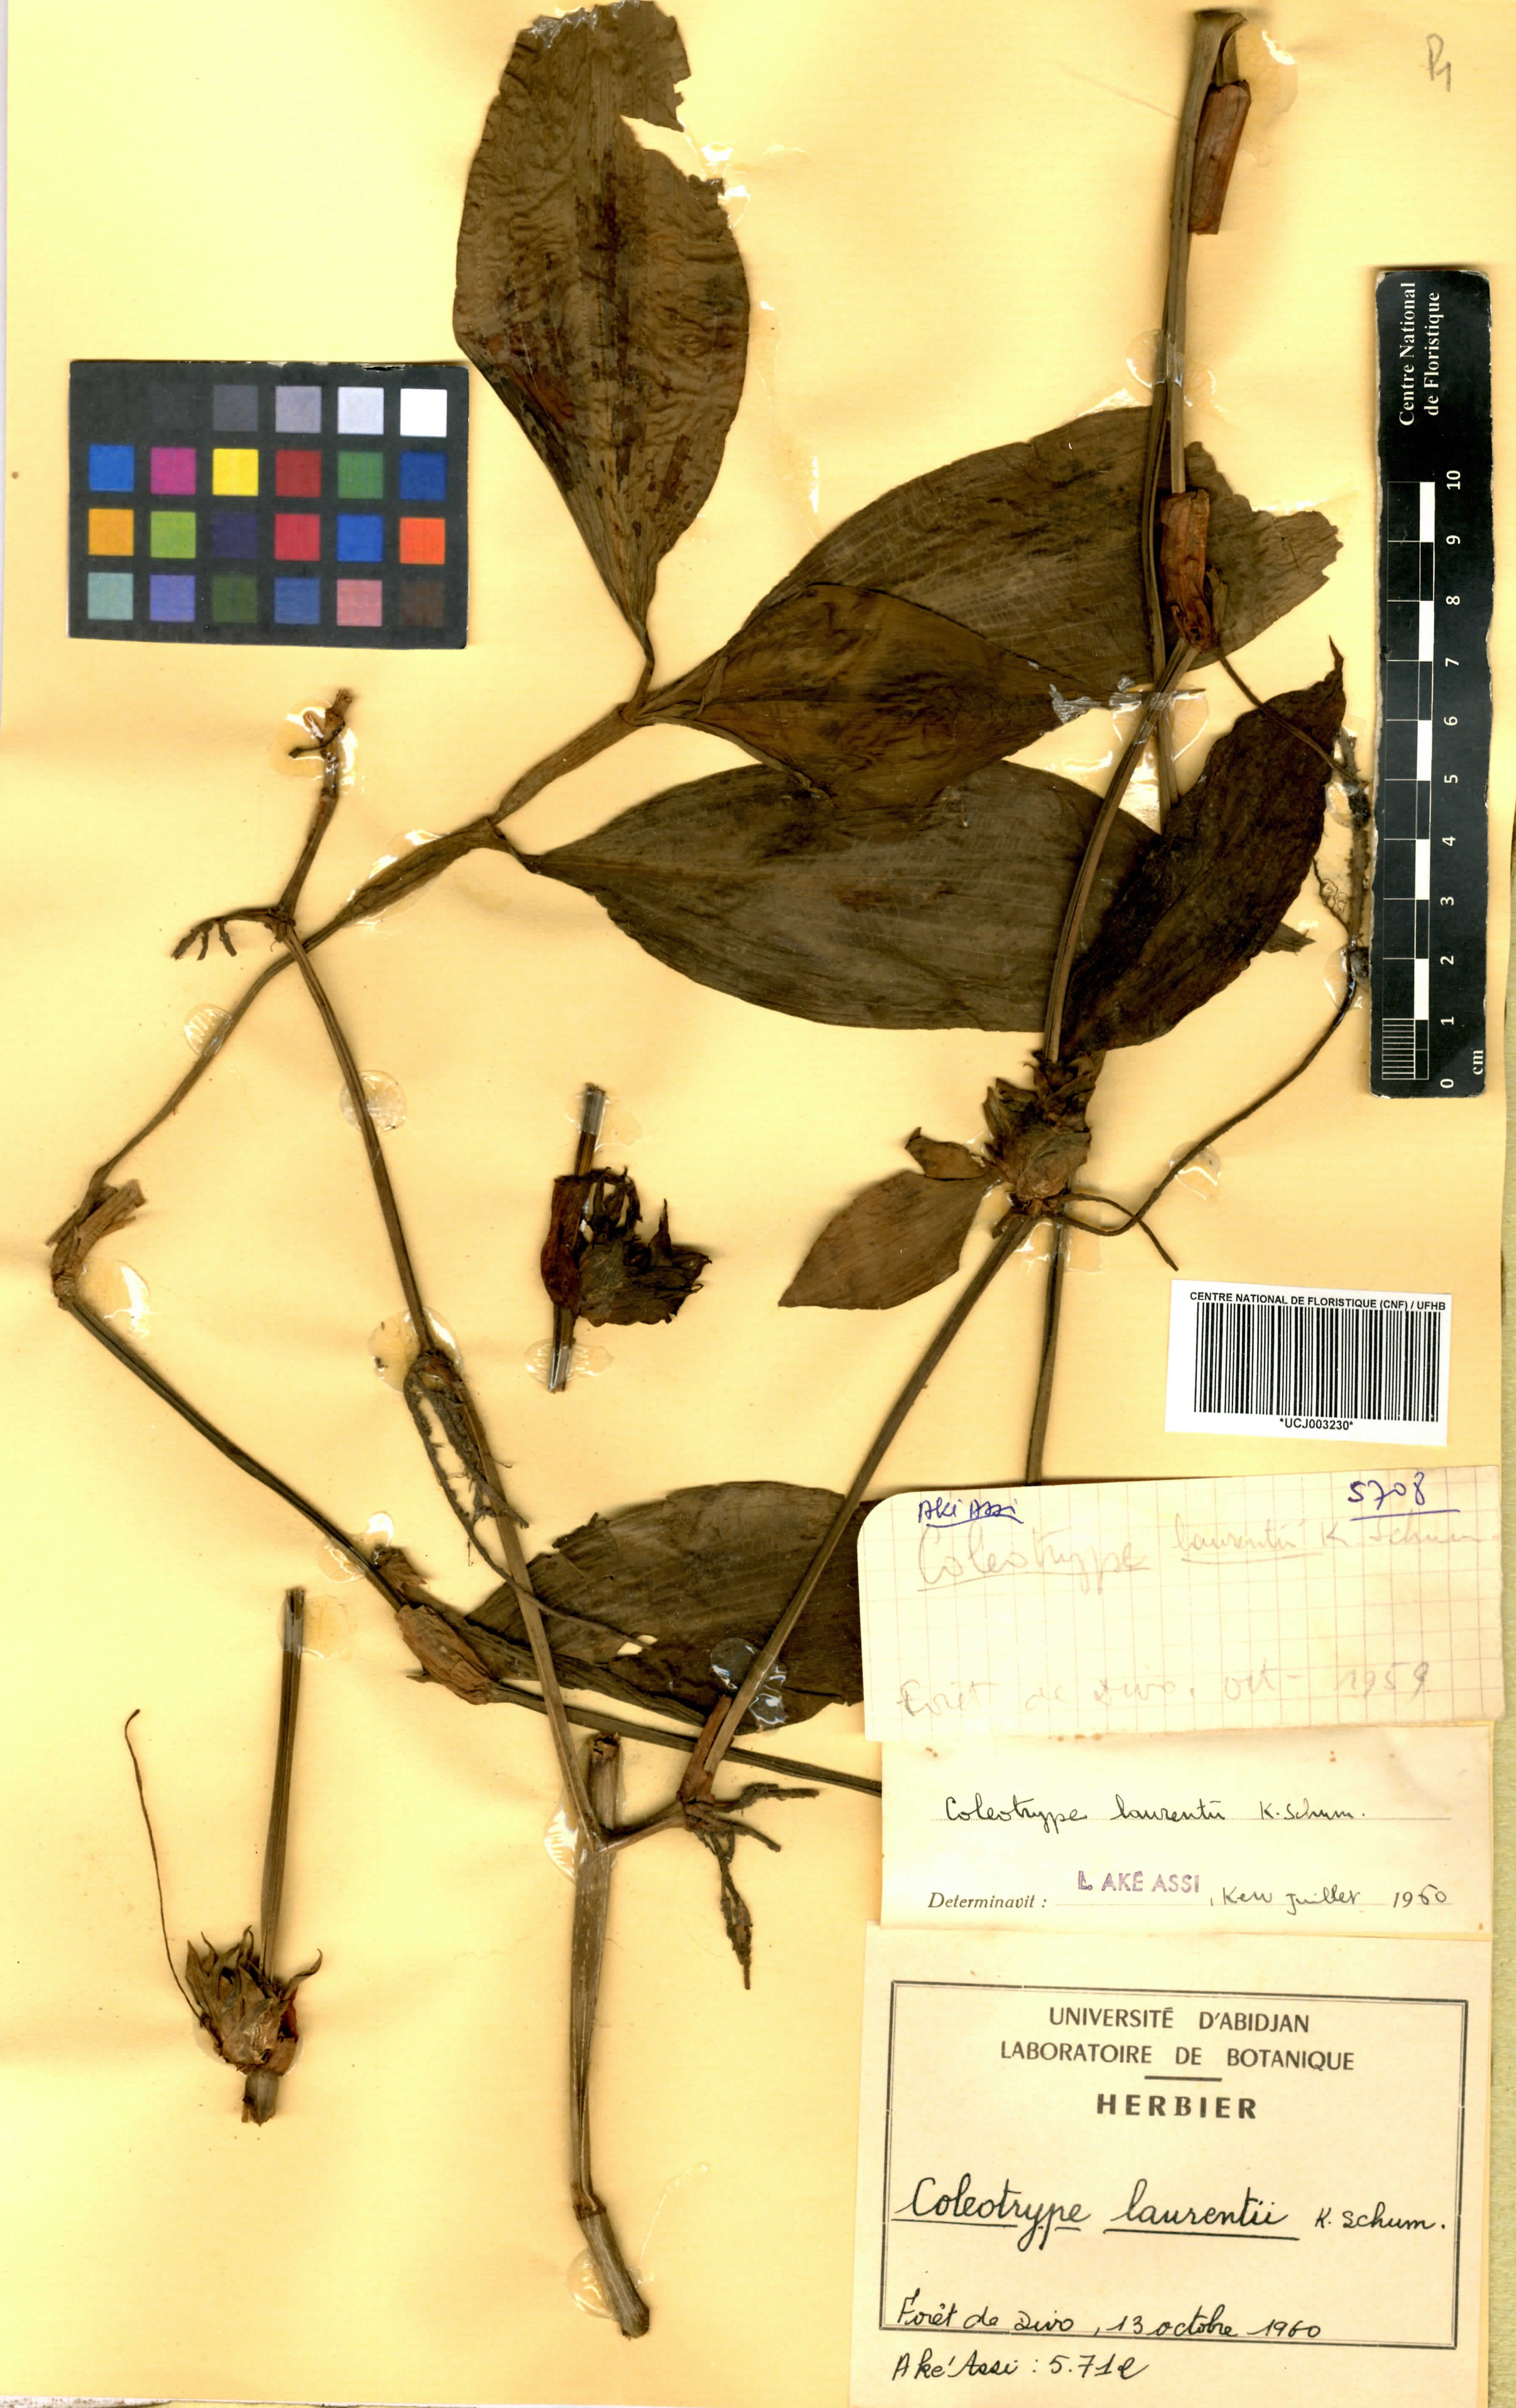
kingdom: Plantae
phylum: Tracheophyta
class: Liliopsida
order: Commelinales
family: Commelinaceae
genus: Coleotrype
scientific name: Coleotrype laurentii
